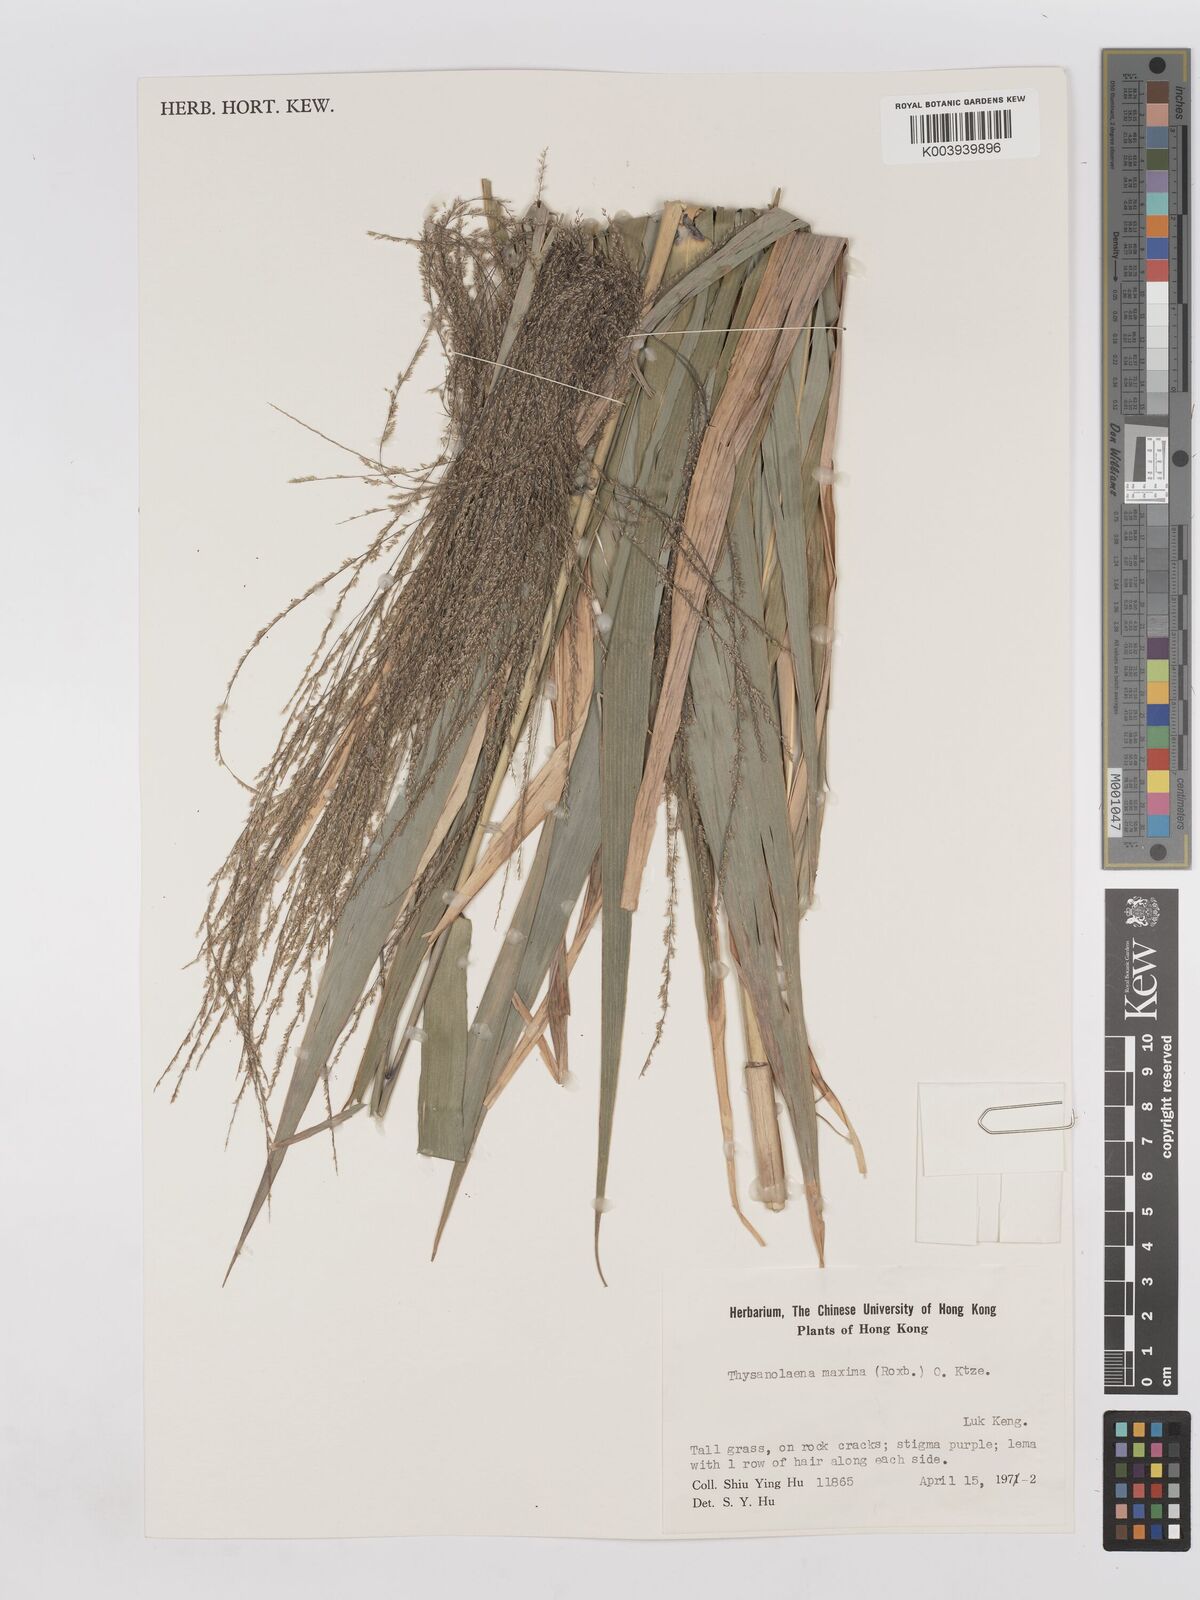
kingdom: Plantae
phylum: Tracheophyta
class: Liliopsida
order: Poales
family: Poaceae
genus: Thysanolaena
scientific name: Thysanolaena latifolia
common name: Tiger grass
